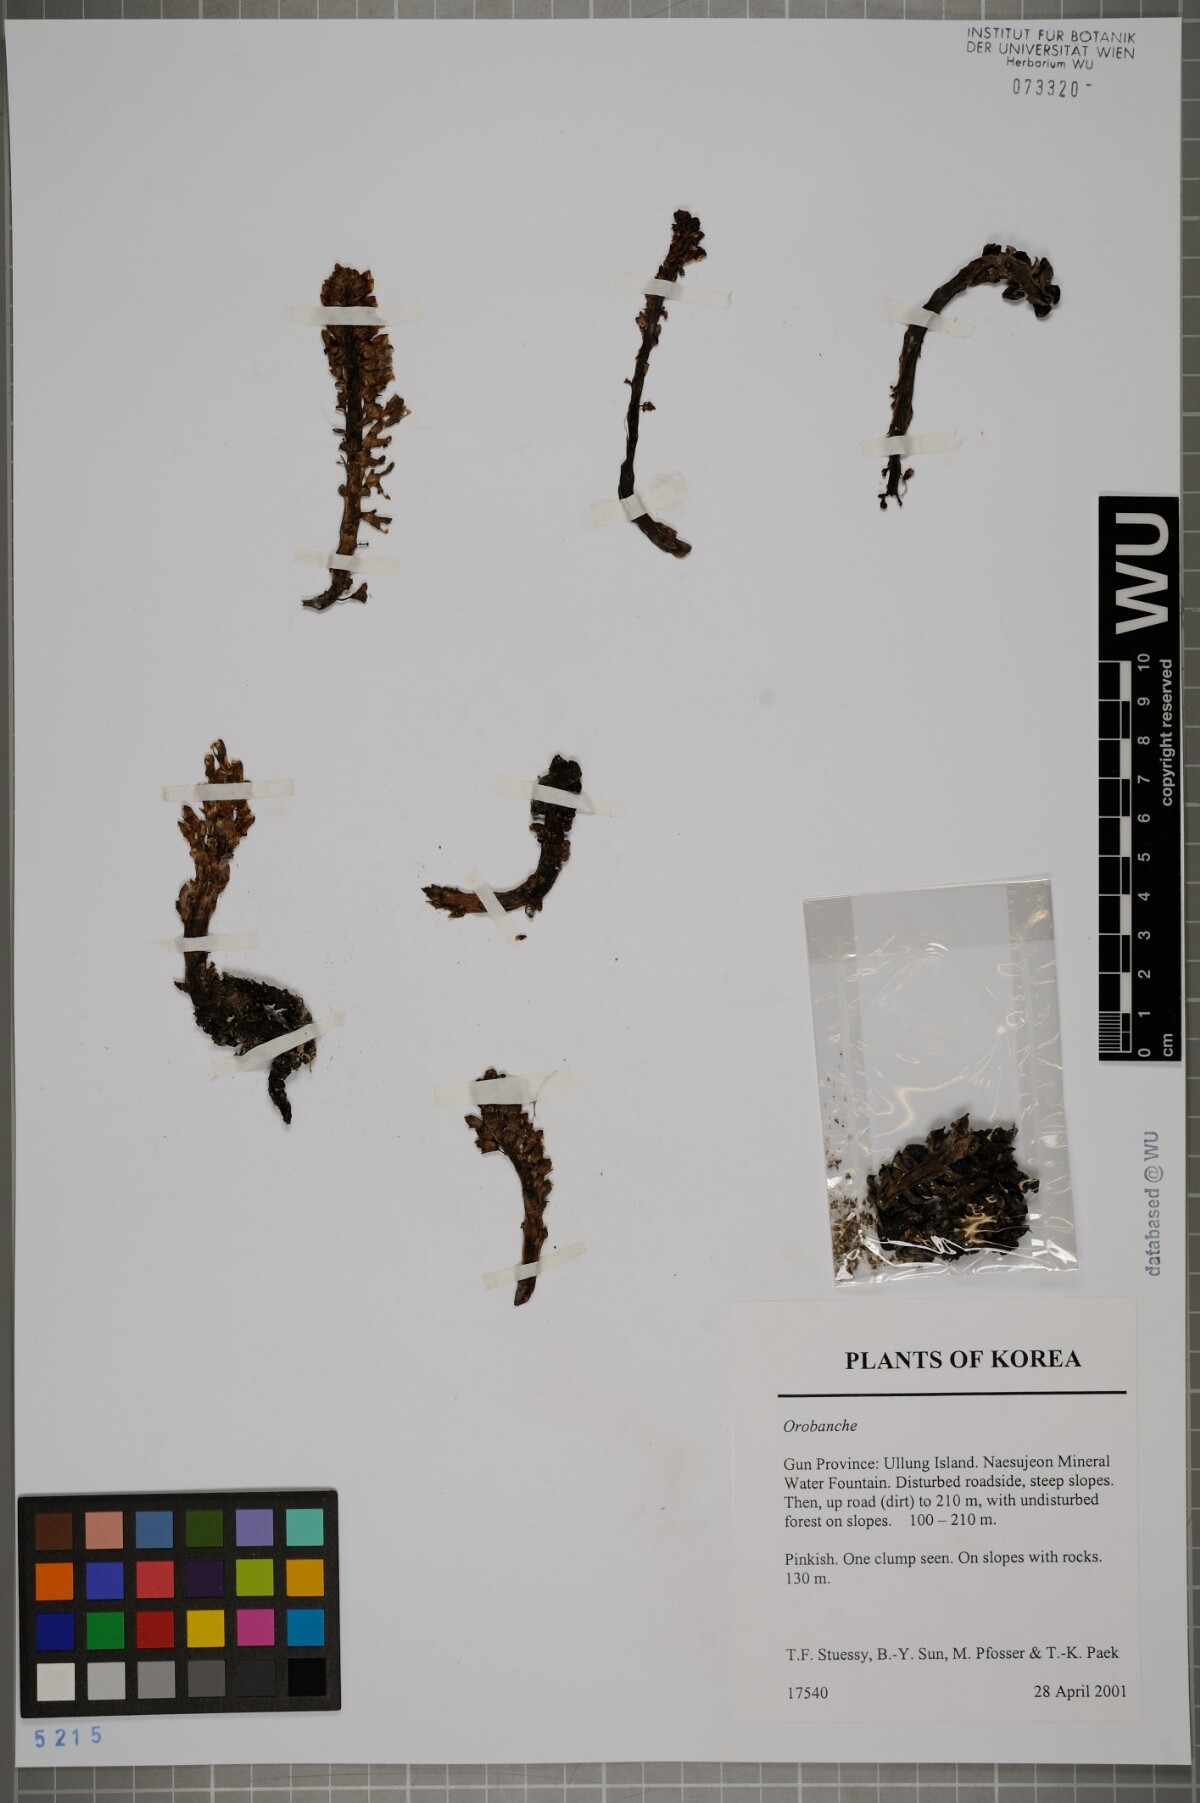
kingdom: Plantae
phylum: Tracheophyta
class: Magnoliopsida
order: Lamiales
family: Orobanchaceae
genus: Lathraea
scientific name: Lathraea
